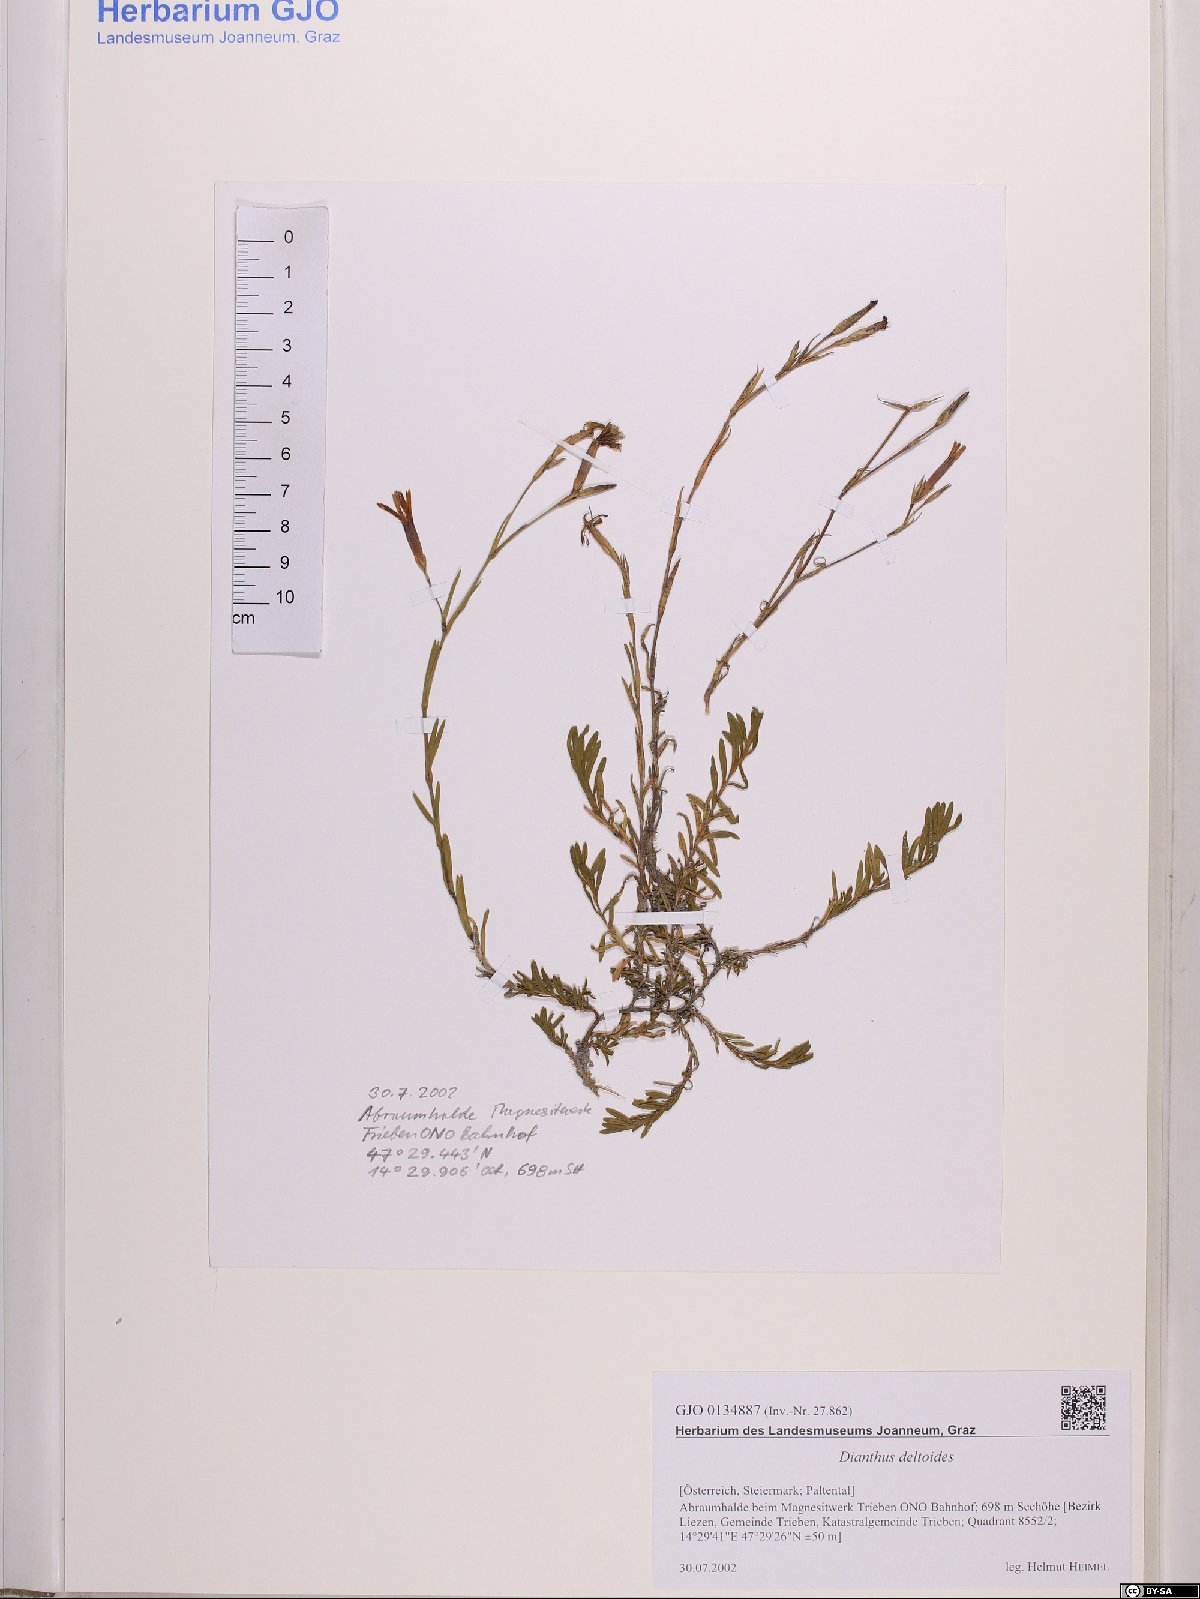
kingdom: Plantae
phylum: Tracheophyta
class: Magnoliopsida
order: Caryophyllales
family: Caryophyllaceae
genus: Dianthus
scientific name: Dianthus deltoides
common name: Maiden pink
